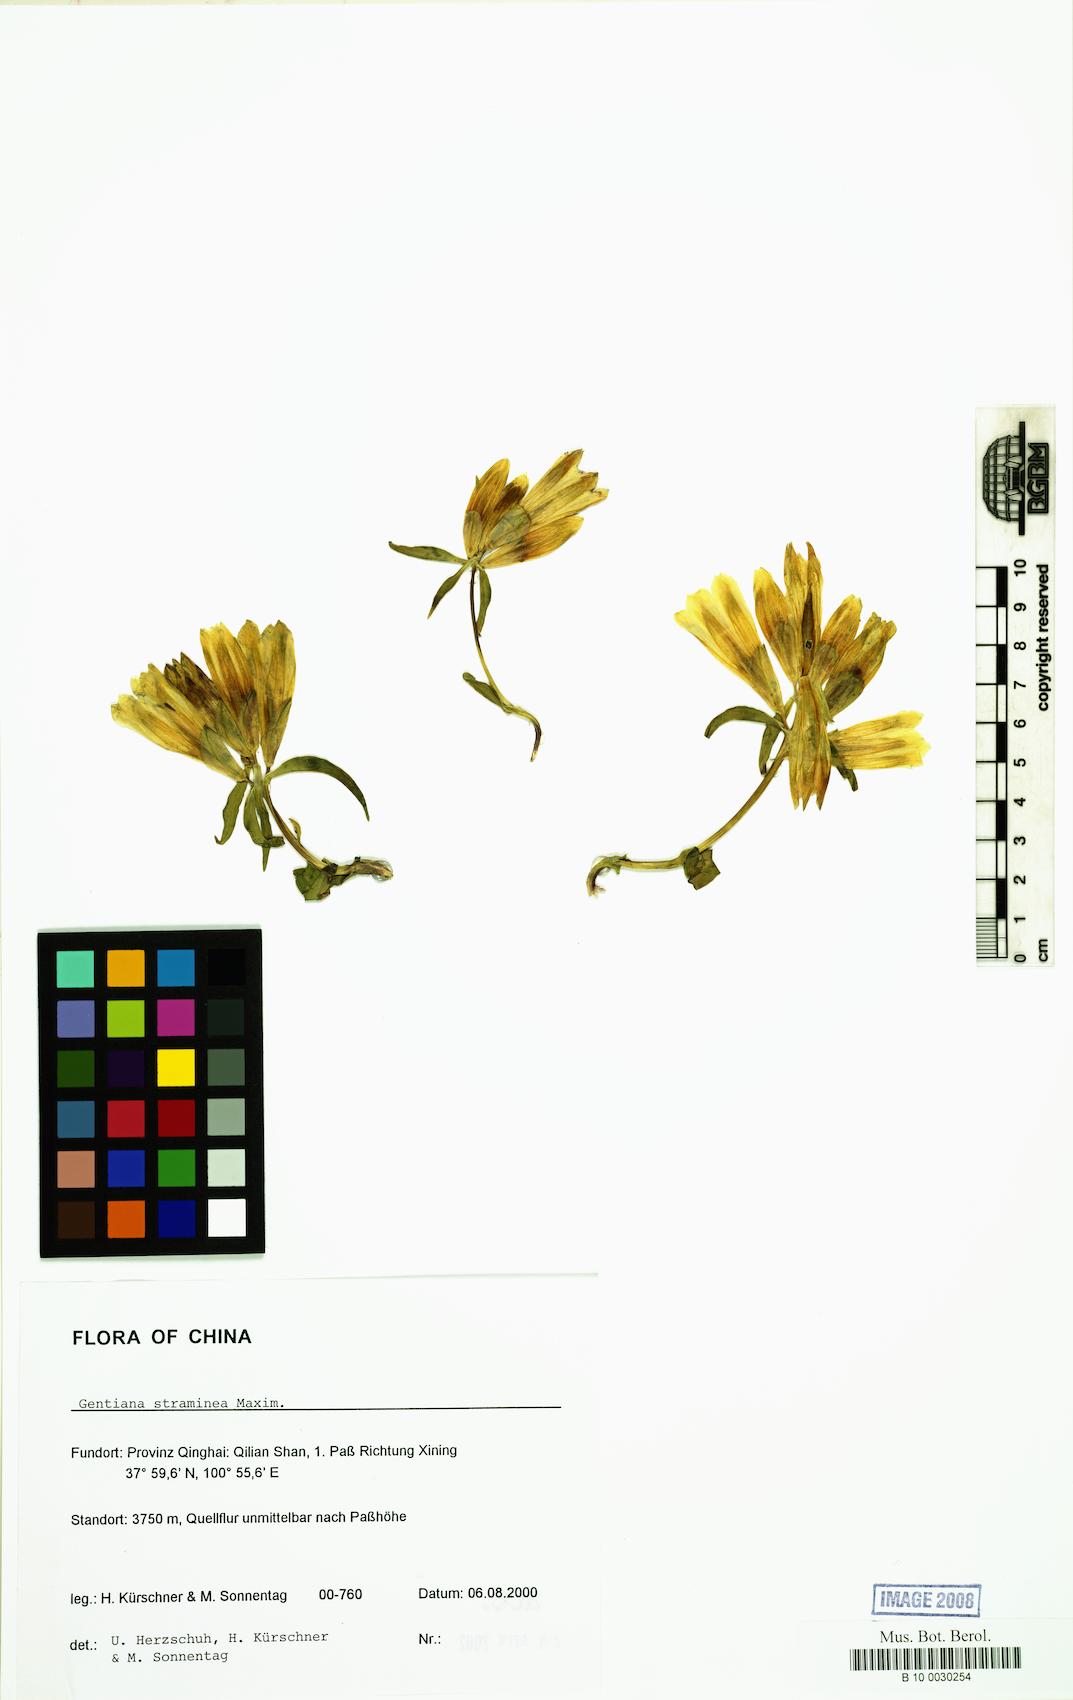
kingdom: Plantae
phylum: Tracheophyta
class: Magnoliopsida
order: Gentianales
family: Gentianaceae
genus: Gentiana
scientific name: Gentiana straminea
